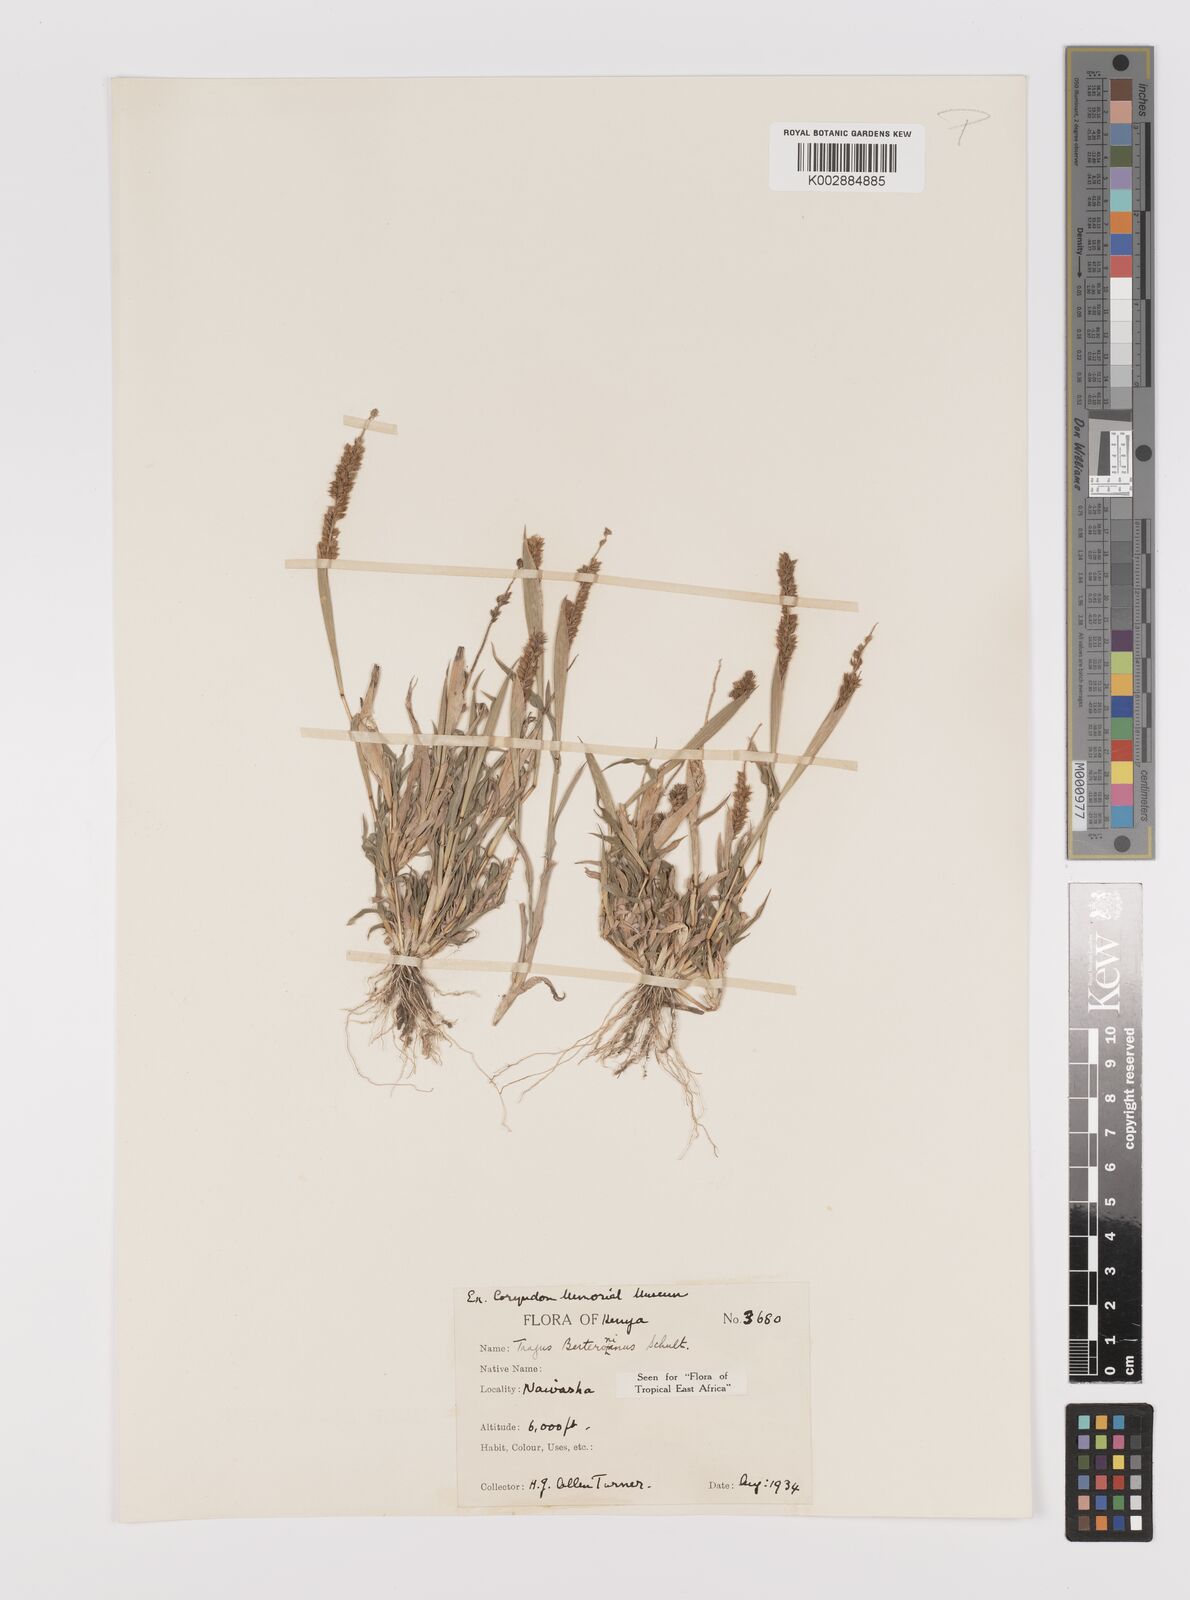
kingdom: Plantae
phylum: Tracheophyta
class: Liliopsida
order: Poales
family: Poaceae
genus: Tragus
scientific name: Tragus berteronianus
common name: African bur-grass
